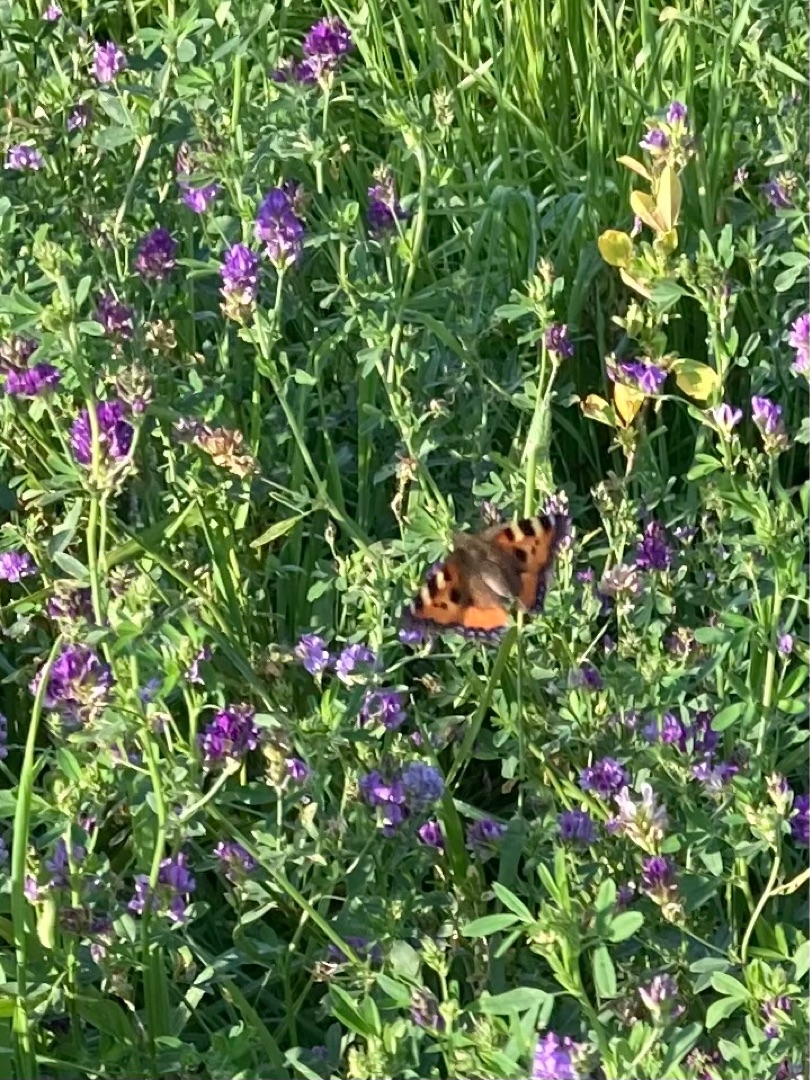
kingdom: Animalia
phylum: Arthropoda
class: Insecta
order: Lepidoptera
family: Nymphalidae
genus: Aglais
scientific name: Aglais urticae
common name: Nældens takvinge
